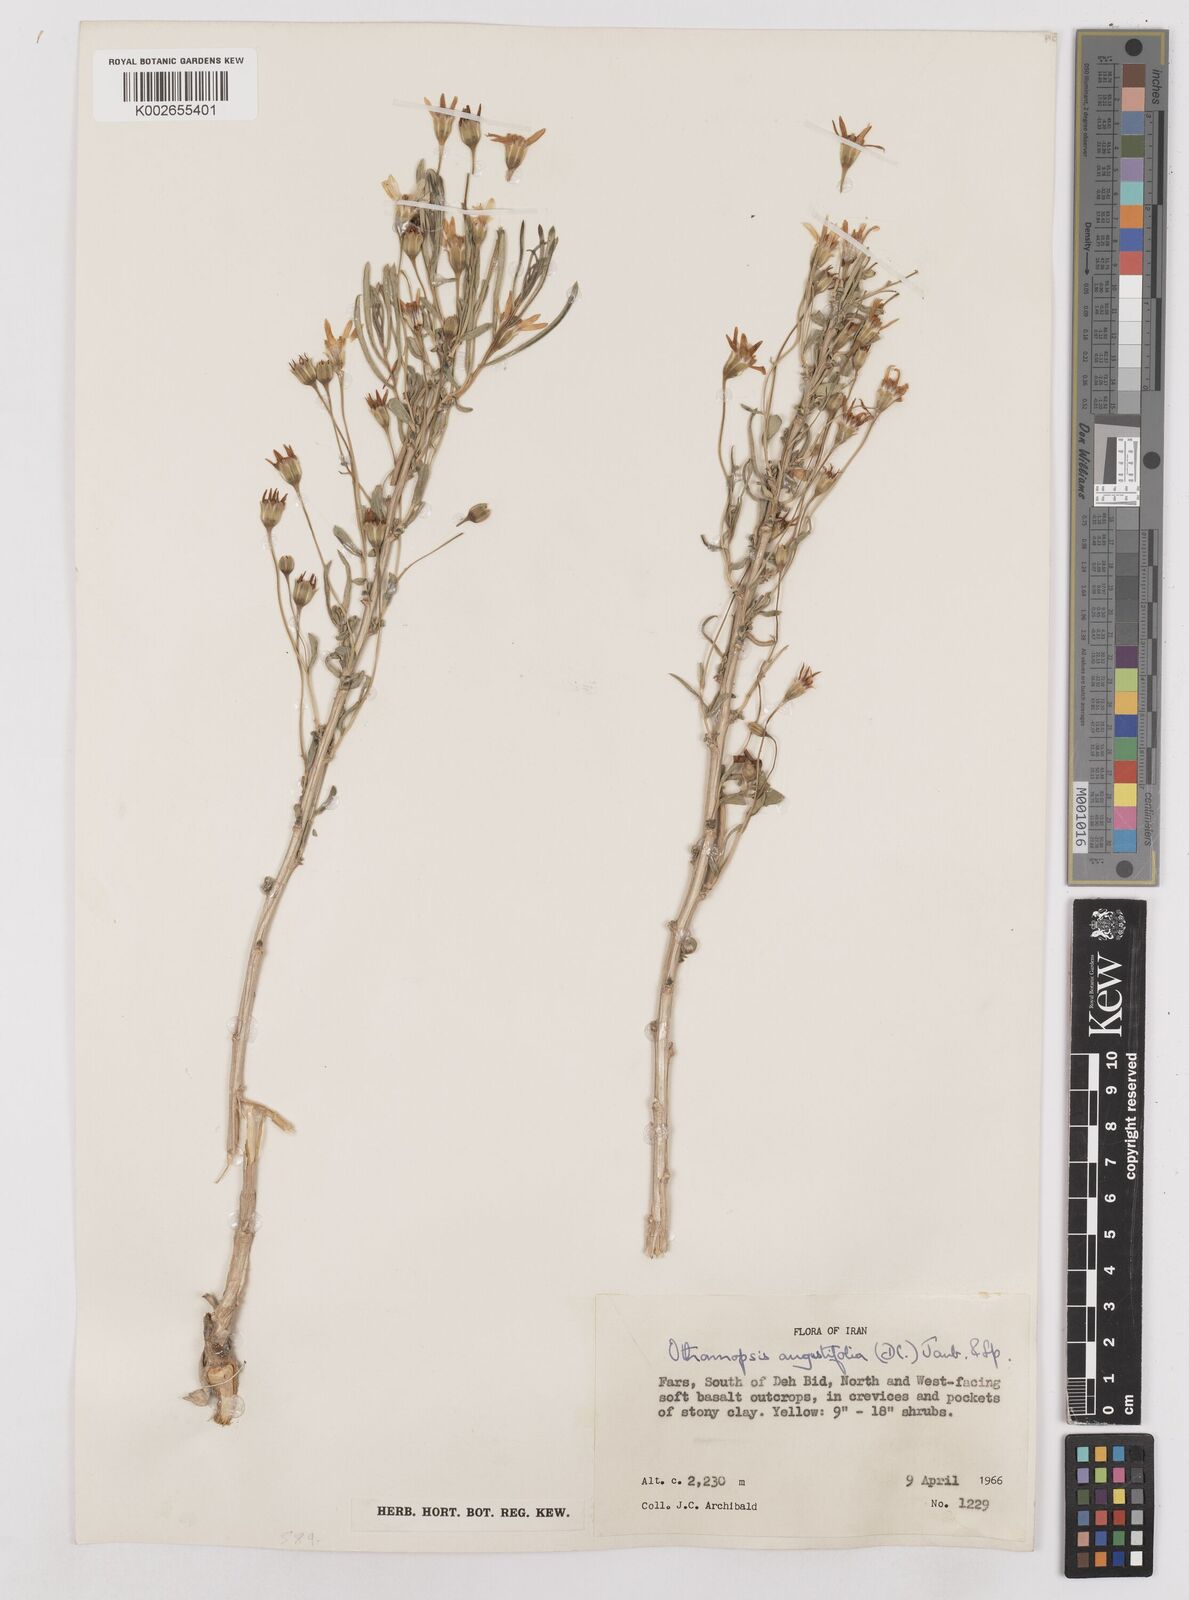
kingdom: Plantae
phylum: Tracheophyta
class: Magnoliopsida
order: Asterales
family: Asteraceae
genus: Hertia
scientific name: Hertia angustifolia
